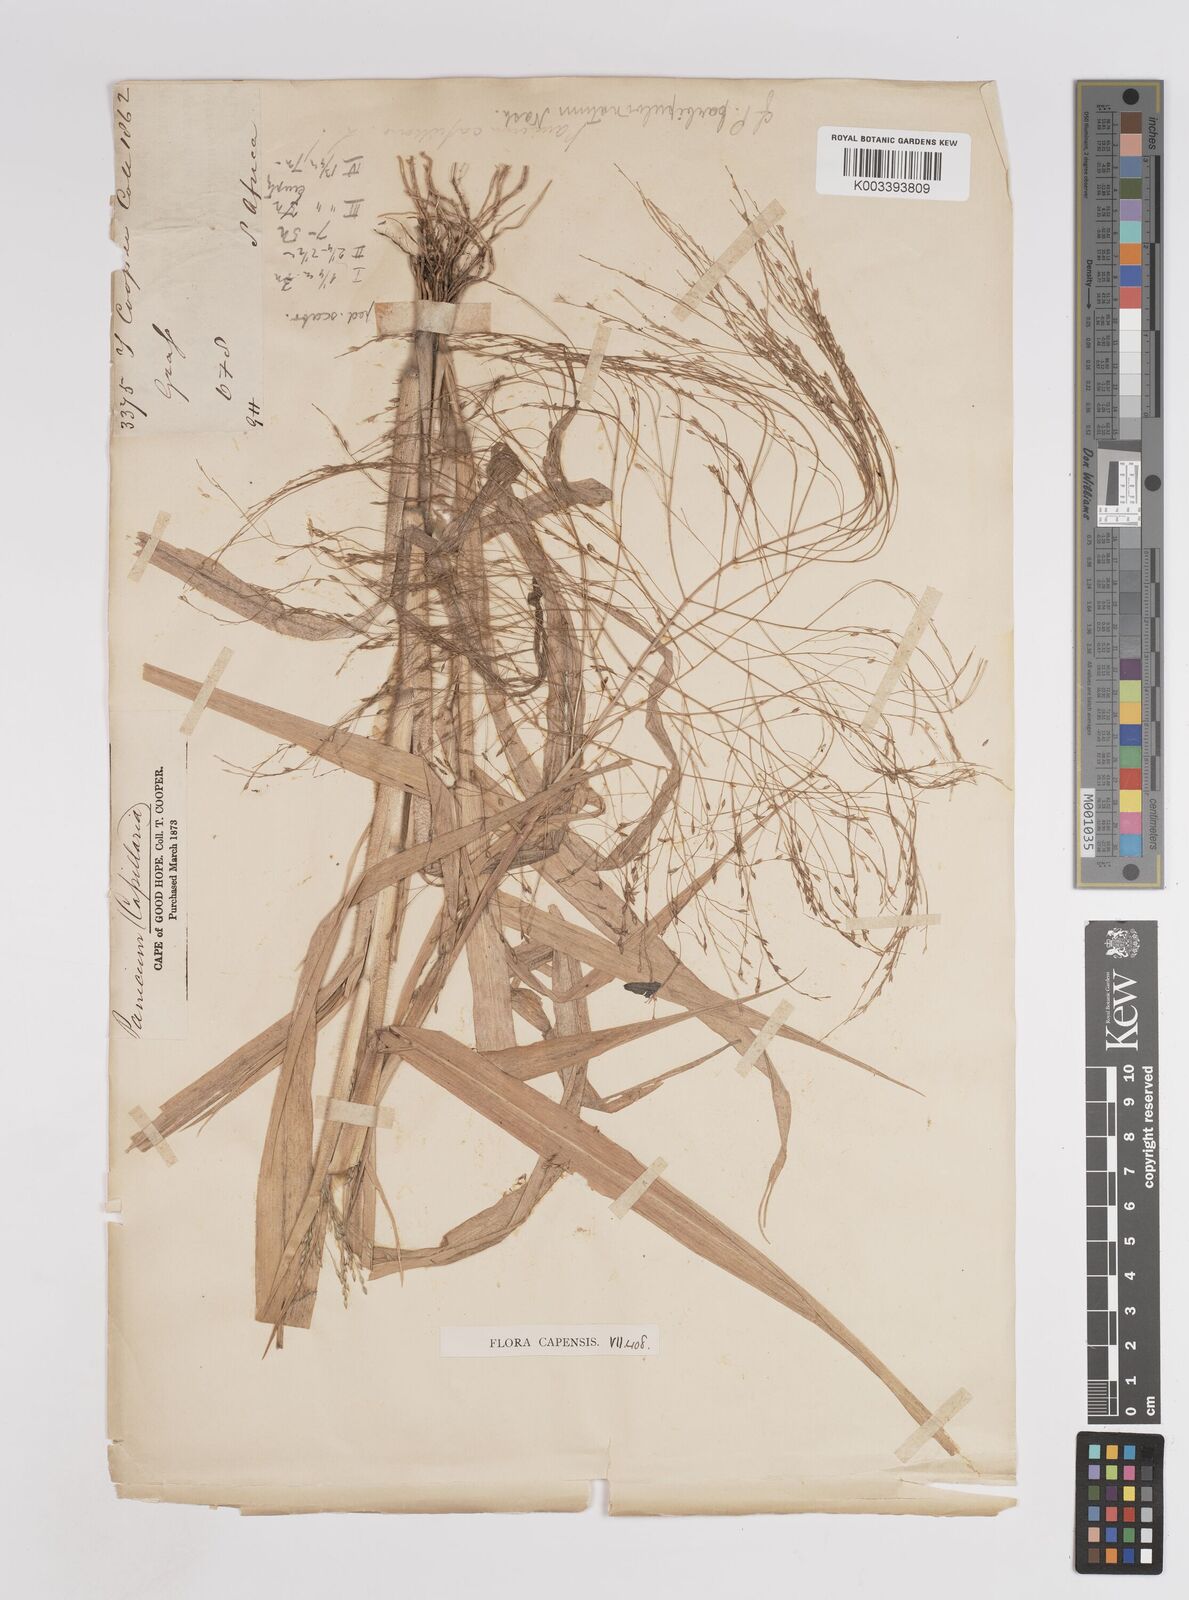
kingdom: Plantae
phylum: Tracheophyta
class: Liliopsida
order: Poales
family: Poaceae
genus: Panicum
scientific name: Panicum capillare
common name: Witch-grass
